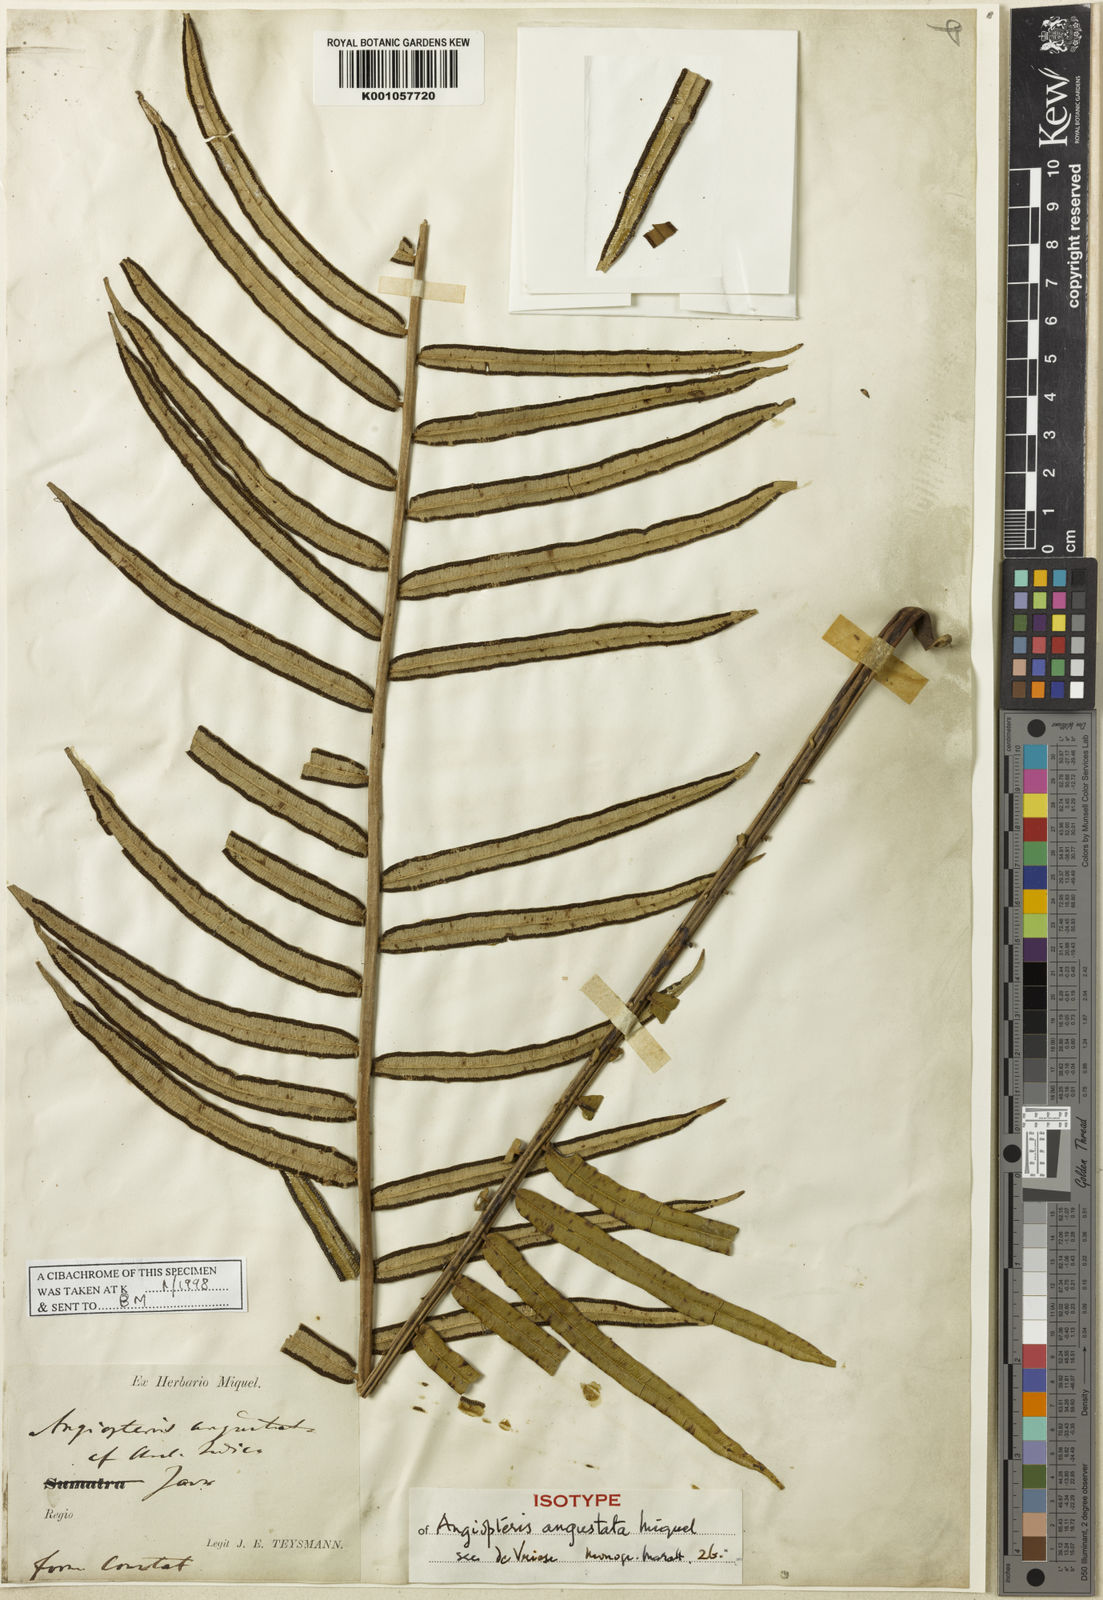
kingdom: Plantae
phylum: Tracheophyta
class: Polypodiopsida
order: Marattiales
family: Marattiaceae
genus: Angiopteris
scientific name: Angiopteris javanica
